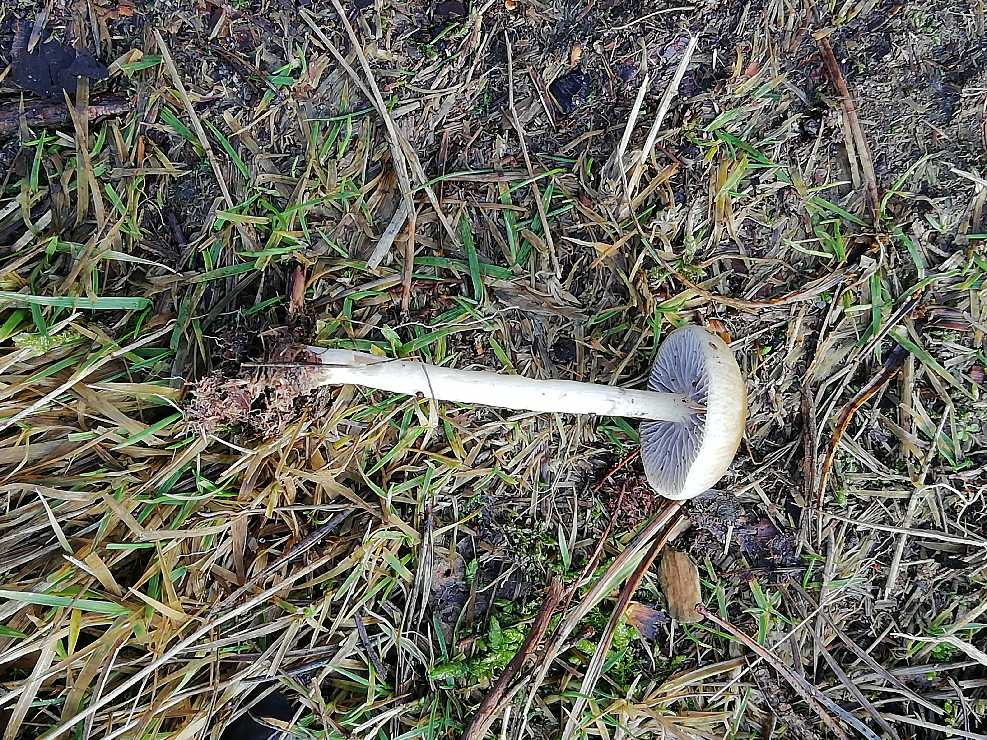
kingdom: Fungi
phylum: Basidiomycota
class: Agaricomycetes
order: Agaricales
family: Strophariaceae
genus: Protostropharia
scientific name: Protostropharia semiglobata
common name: halvkugleformet bredblad
